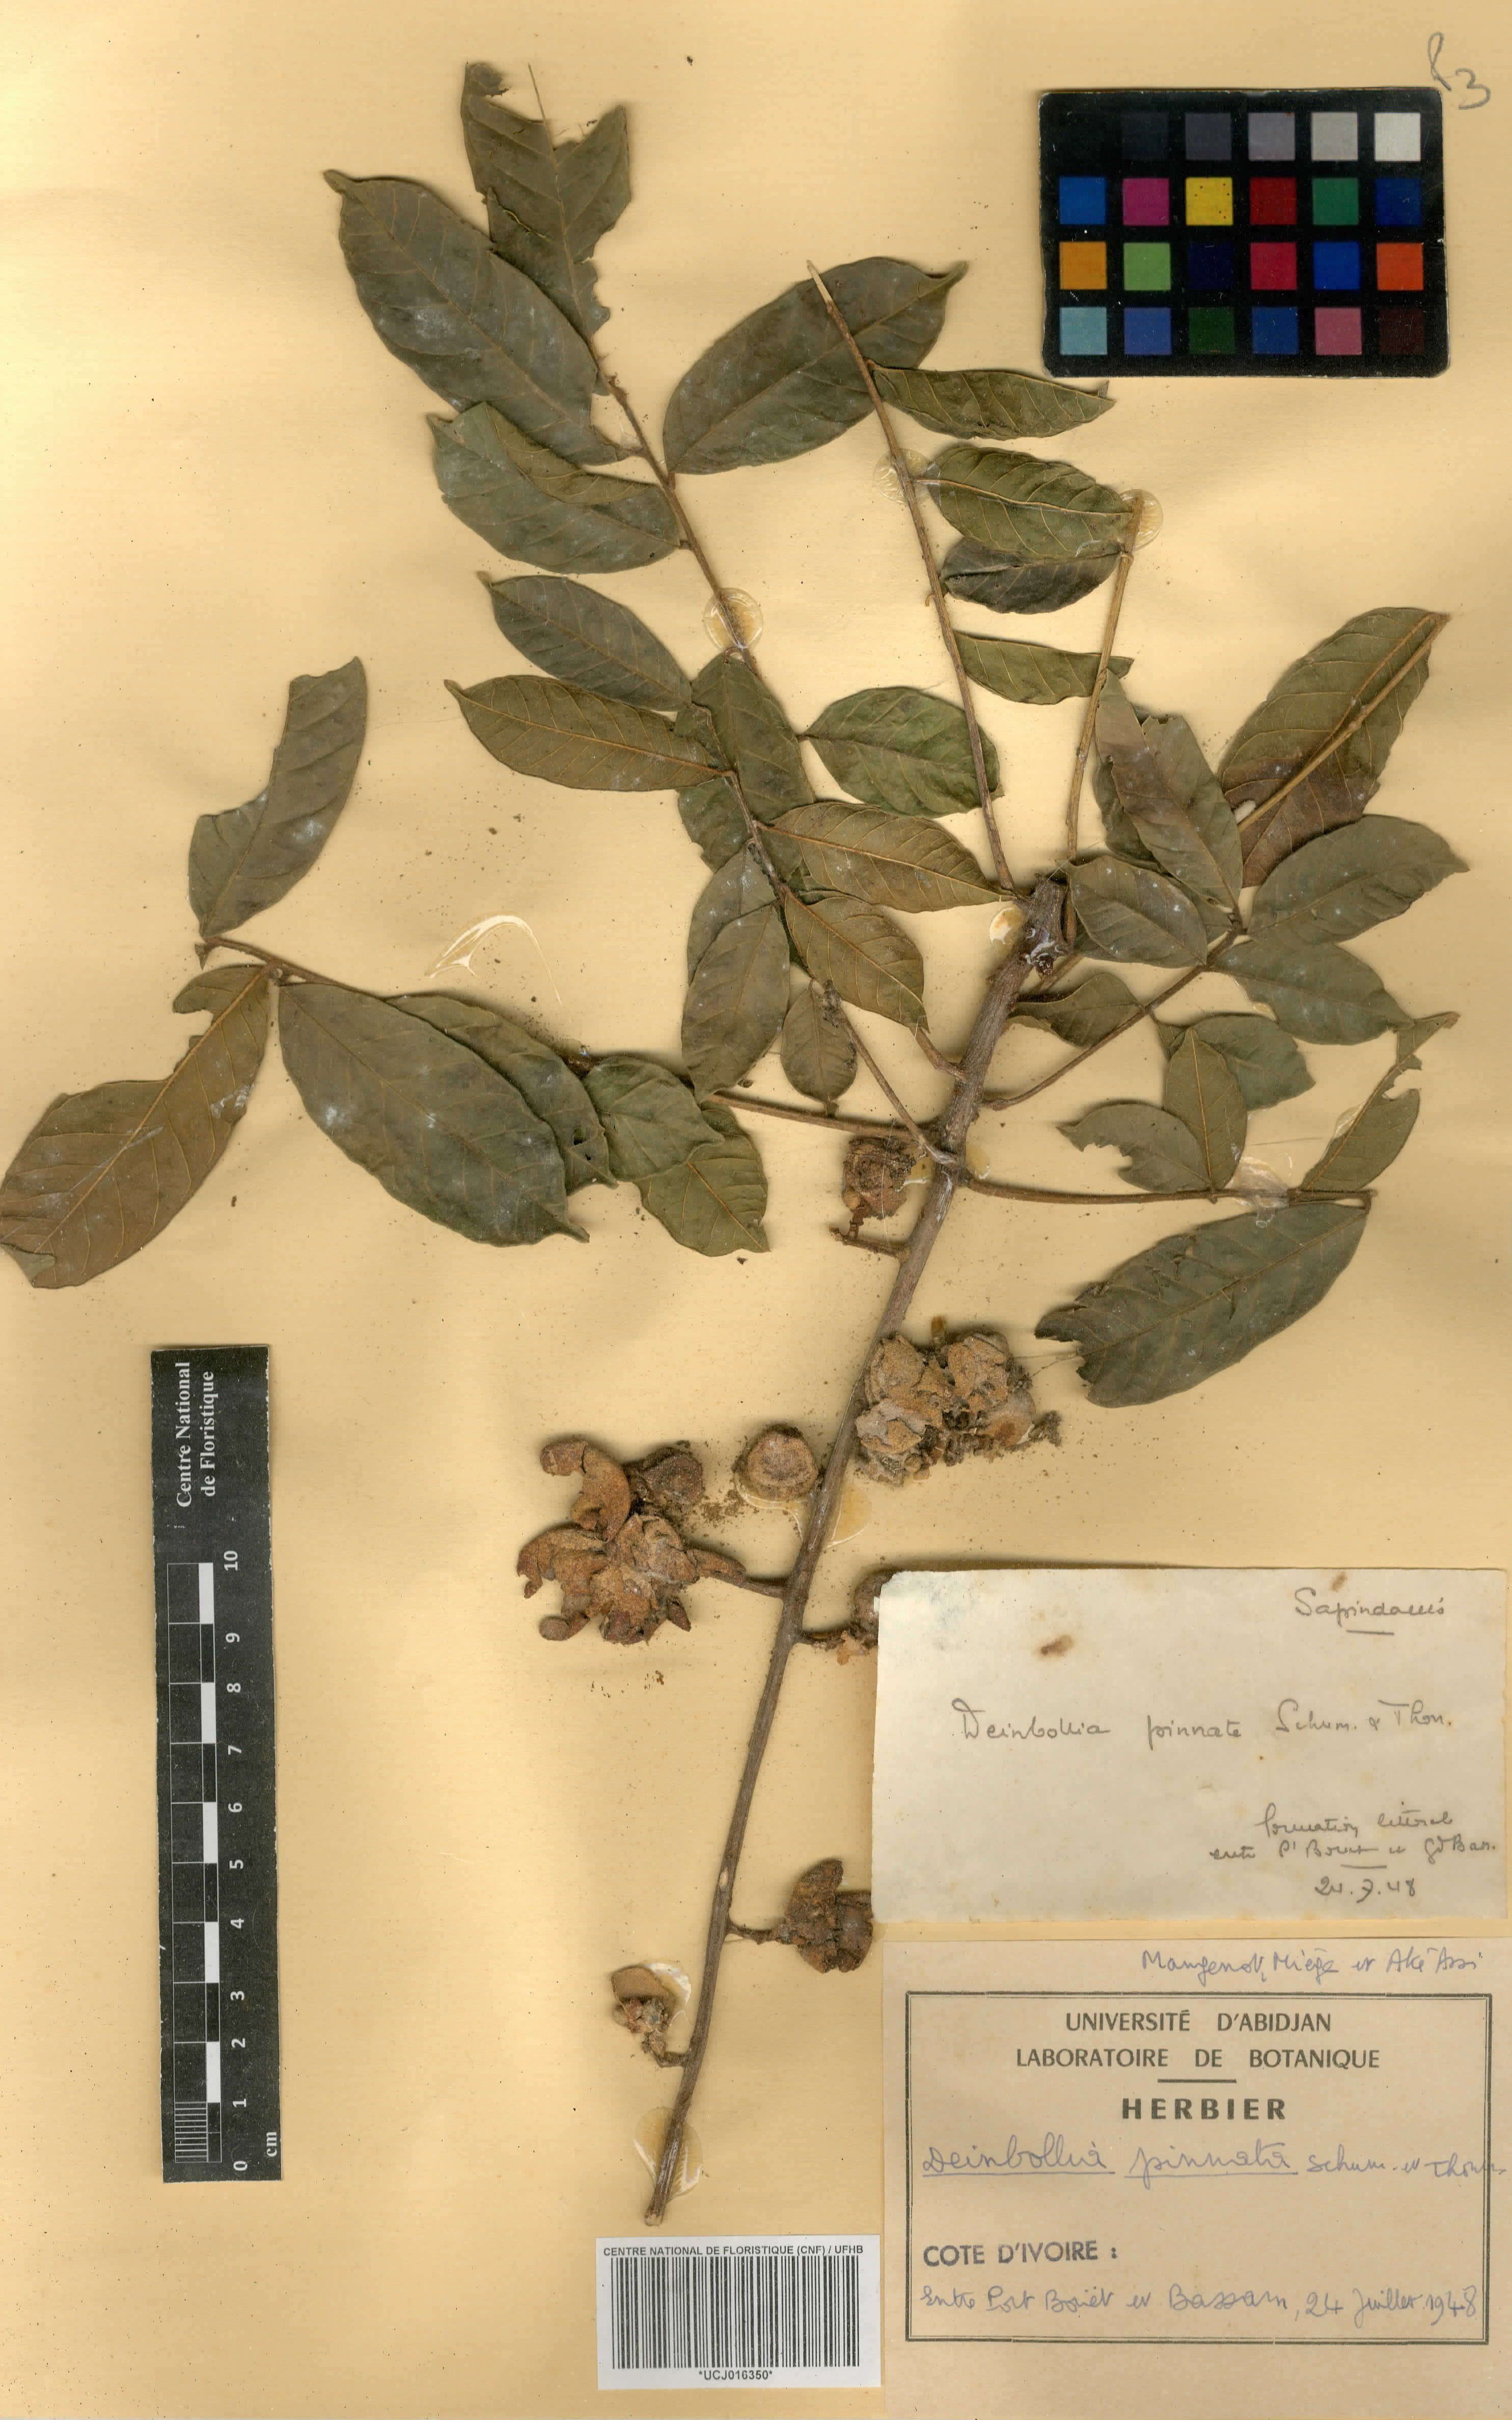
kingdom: Plantae
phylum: Tracheophyta
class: Magnoliopsida
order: Sapindales
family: Sapindaceae
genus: Deinbollia
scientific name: Deinbollia pinnata
